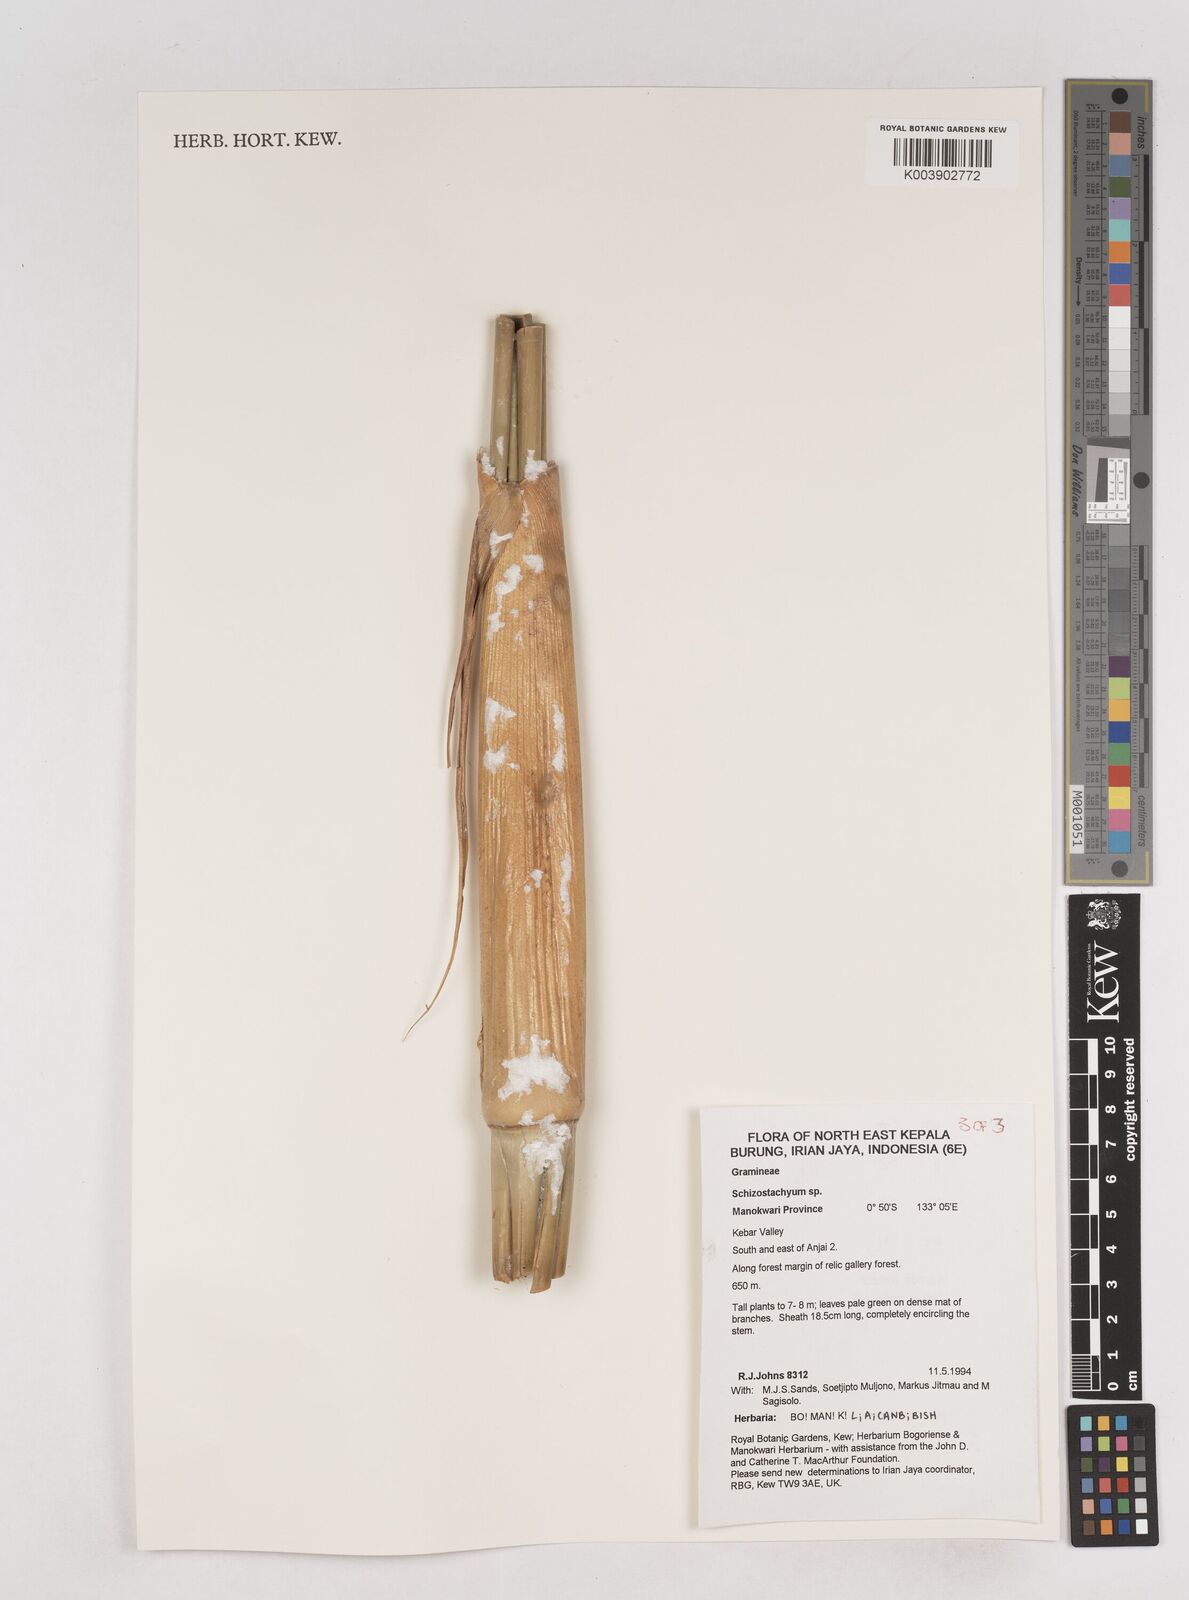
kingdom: Plantae
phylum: Tracheophyta
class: Liliopsida
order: Poales
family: Poaceae
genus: Schizostachyum
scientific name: Schizostachyum
